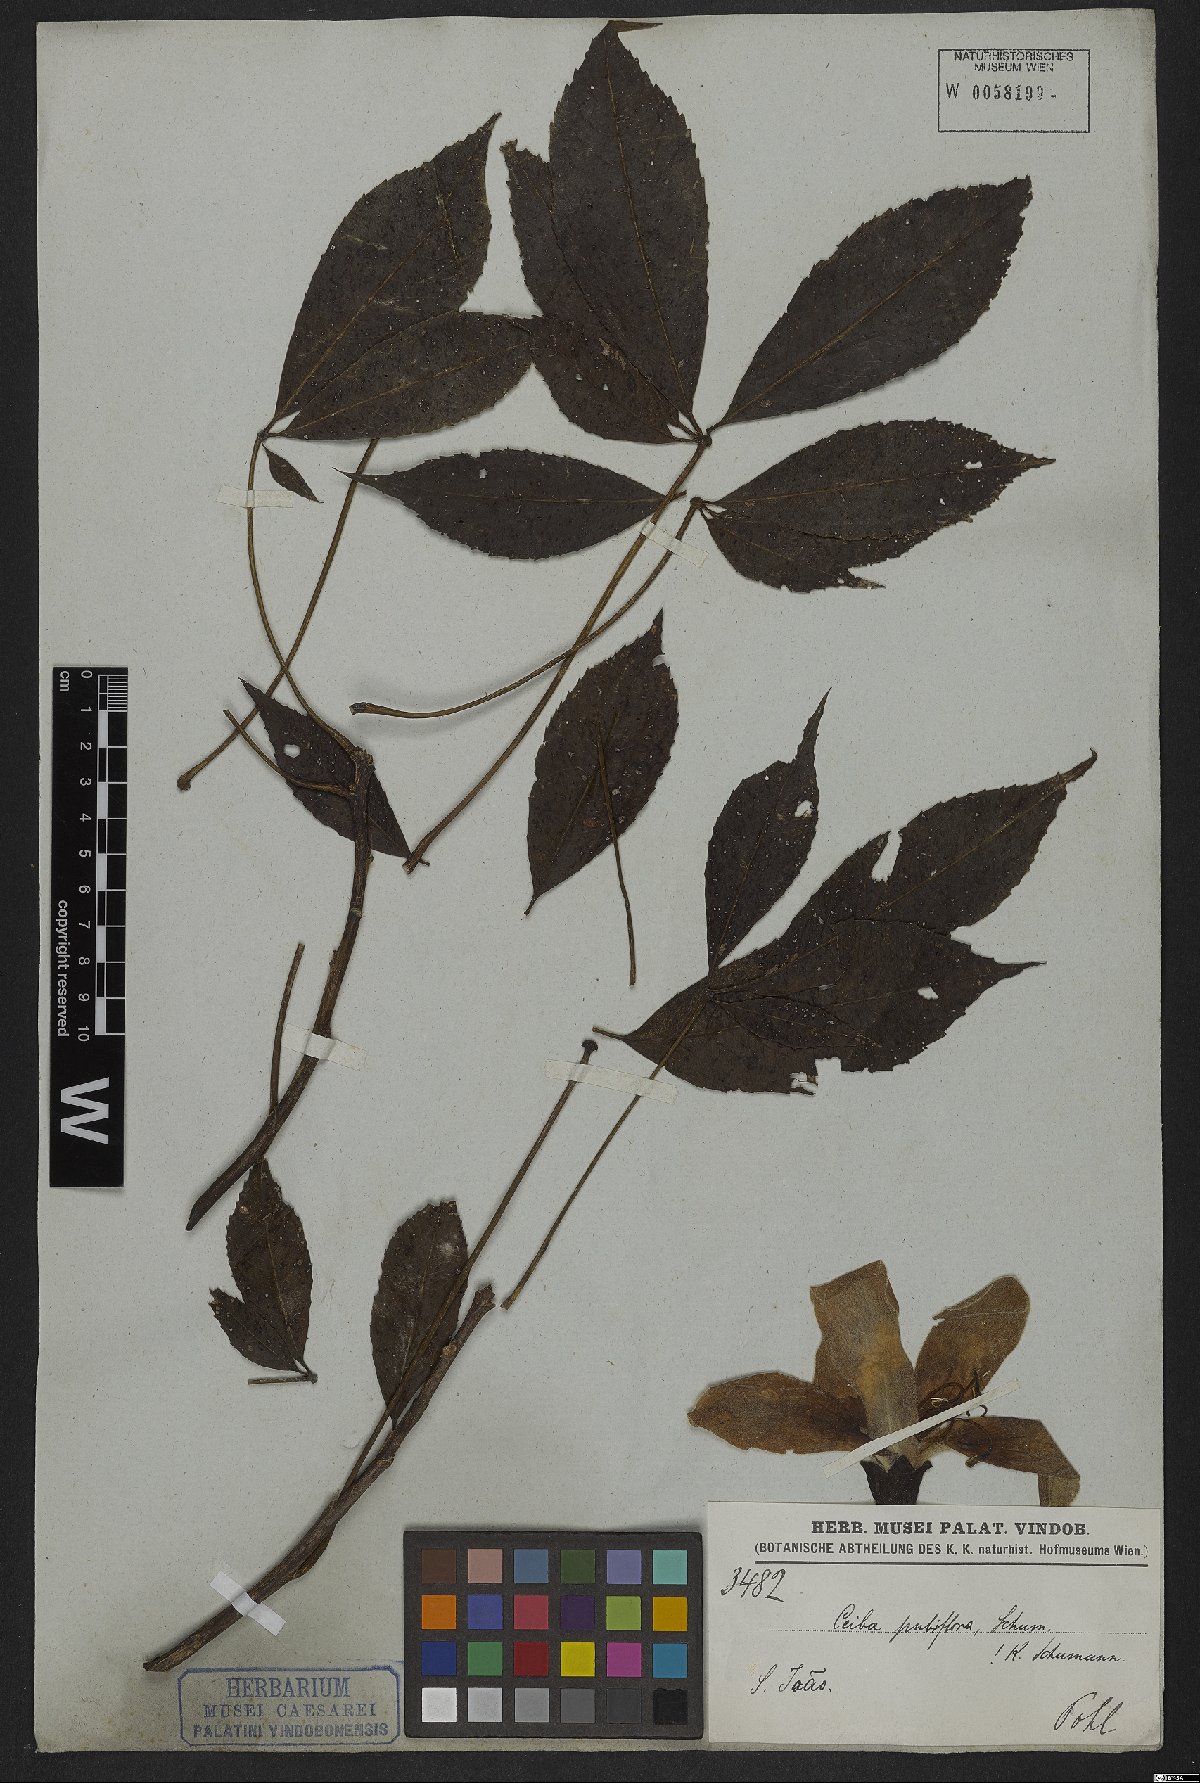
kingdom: Plantae
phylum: Tracheophyta
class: Magnoliopsida
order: Malvales
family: Malvaceae
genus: Ceiba
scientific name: Ceiba pubiflora
